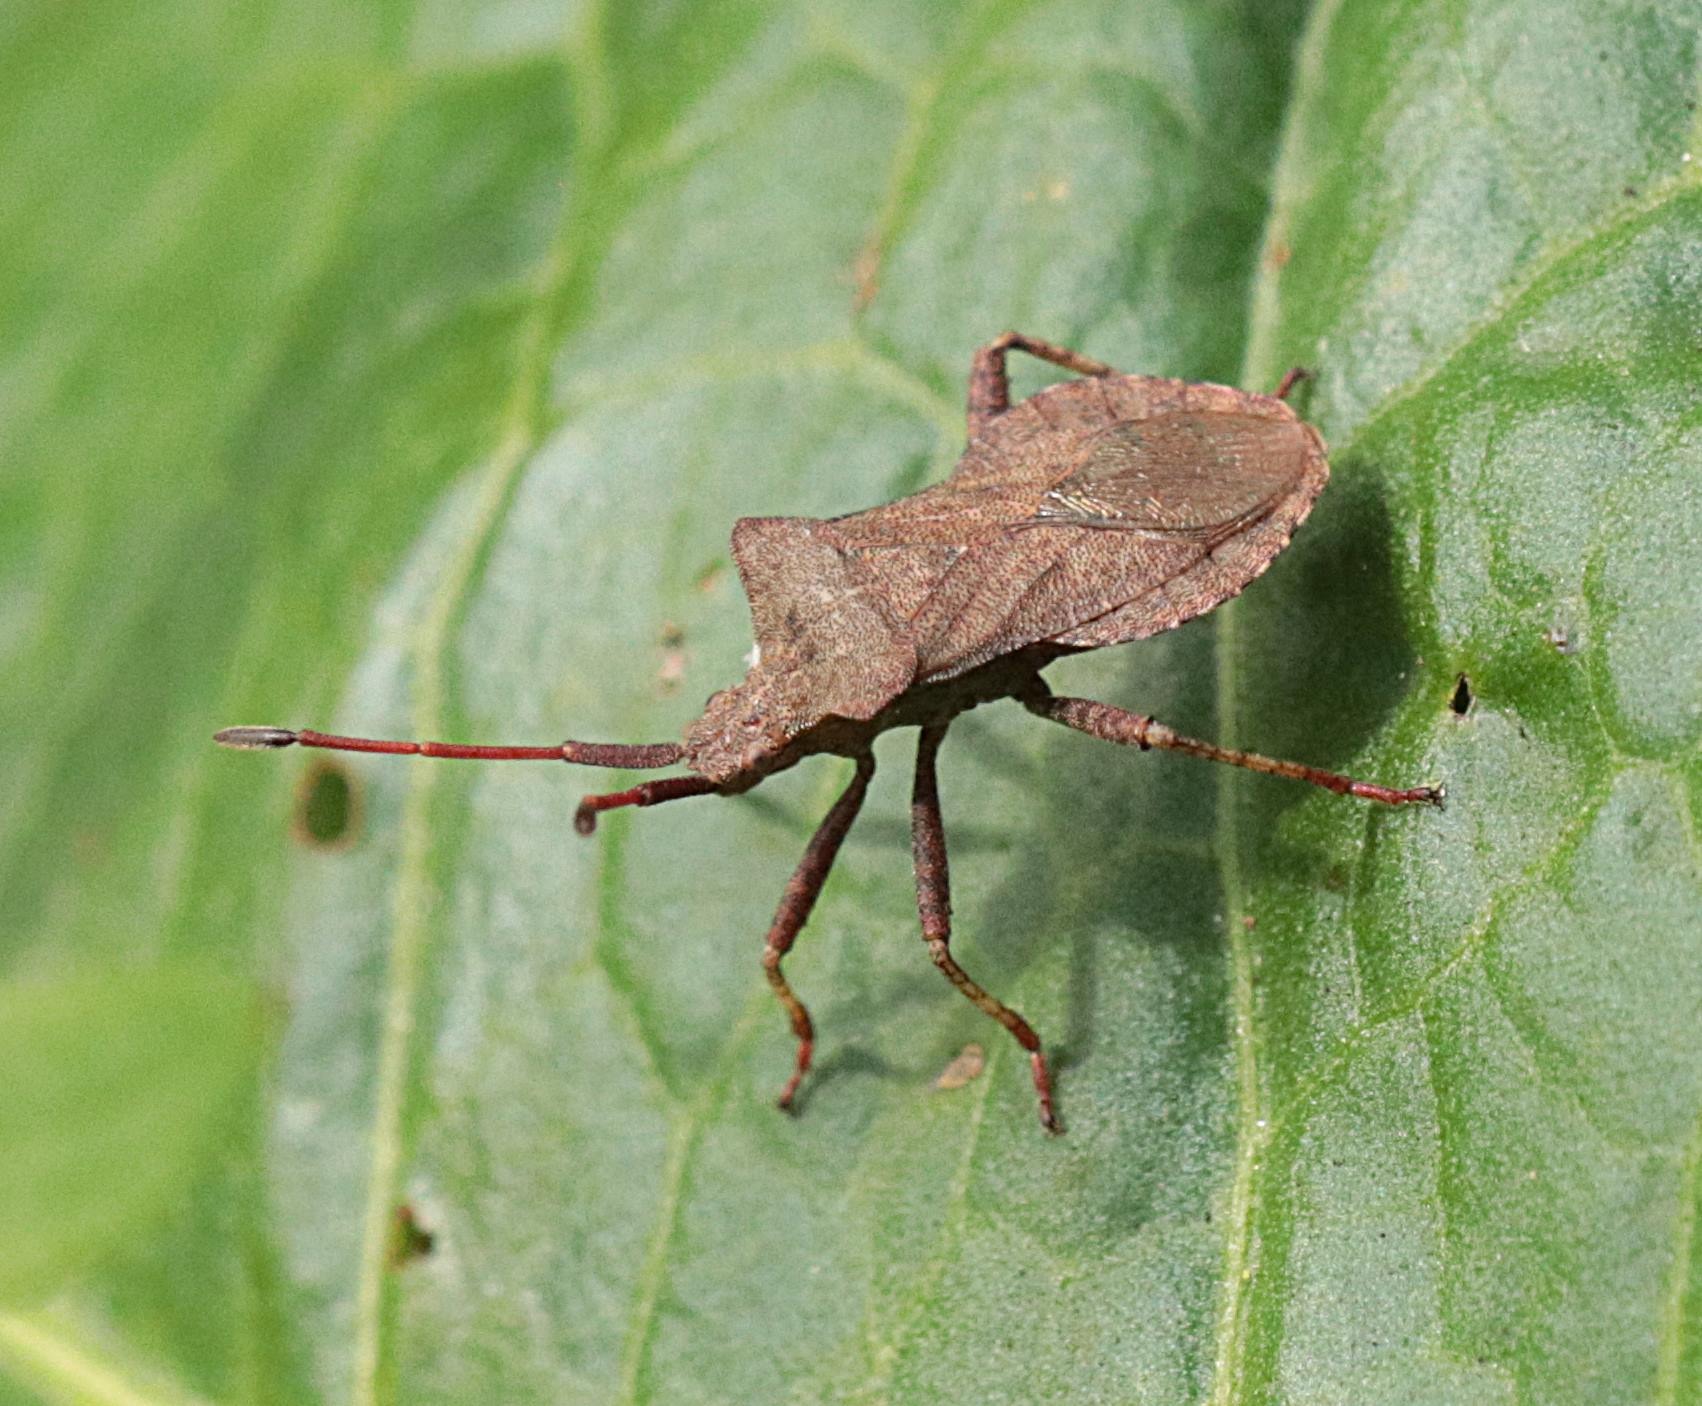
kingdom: Animalia
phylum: Arthropoda
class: Insecta
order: Hemiptera
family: Coreidae
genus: Coreus
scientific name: Coreus marginatus
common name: Skræppetæge
